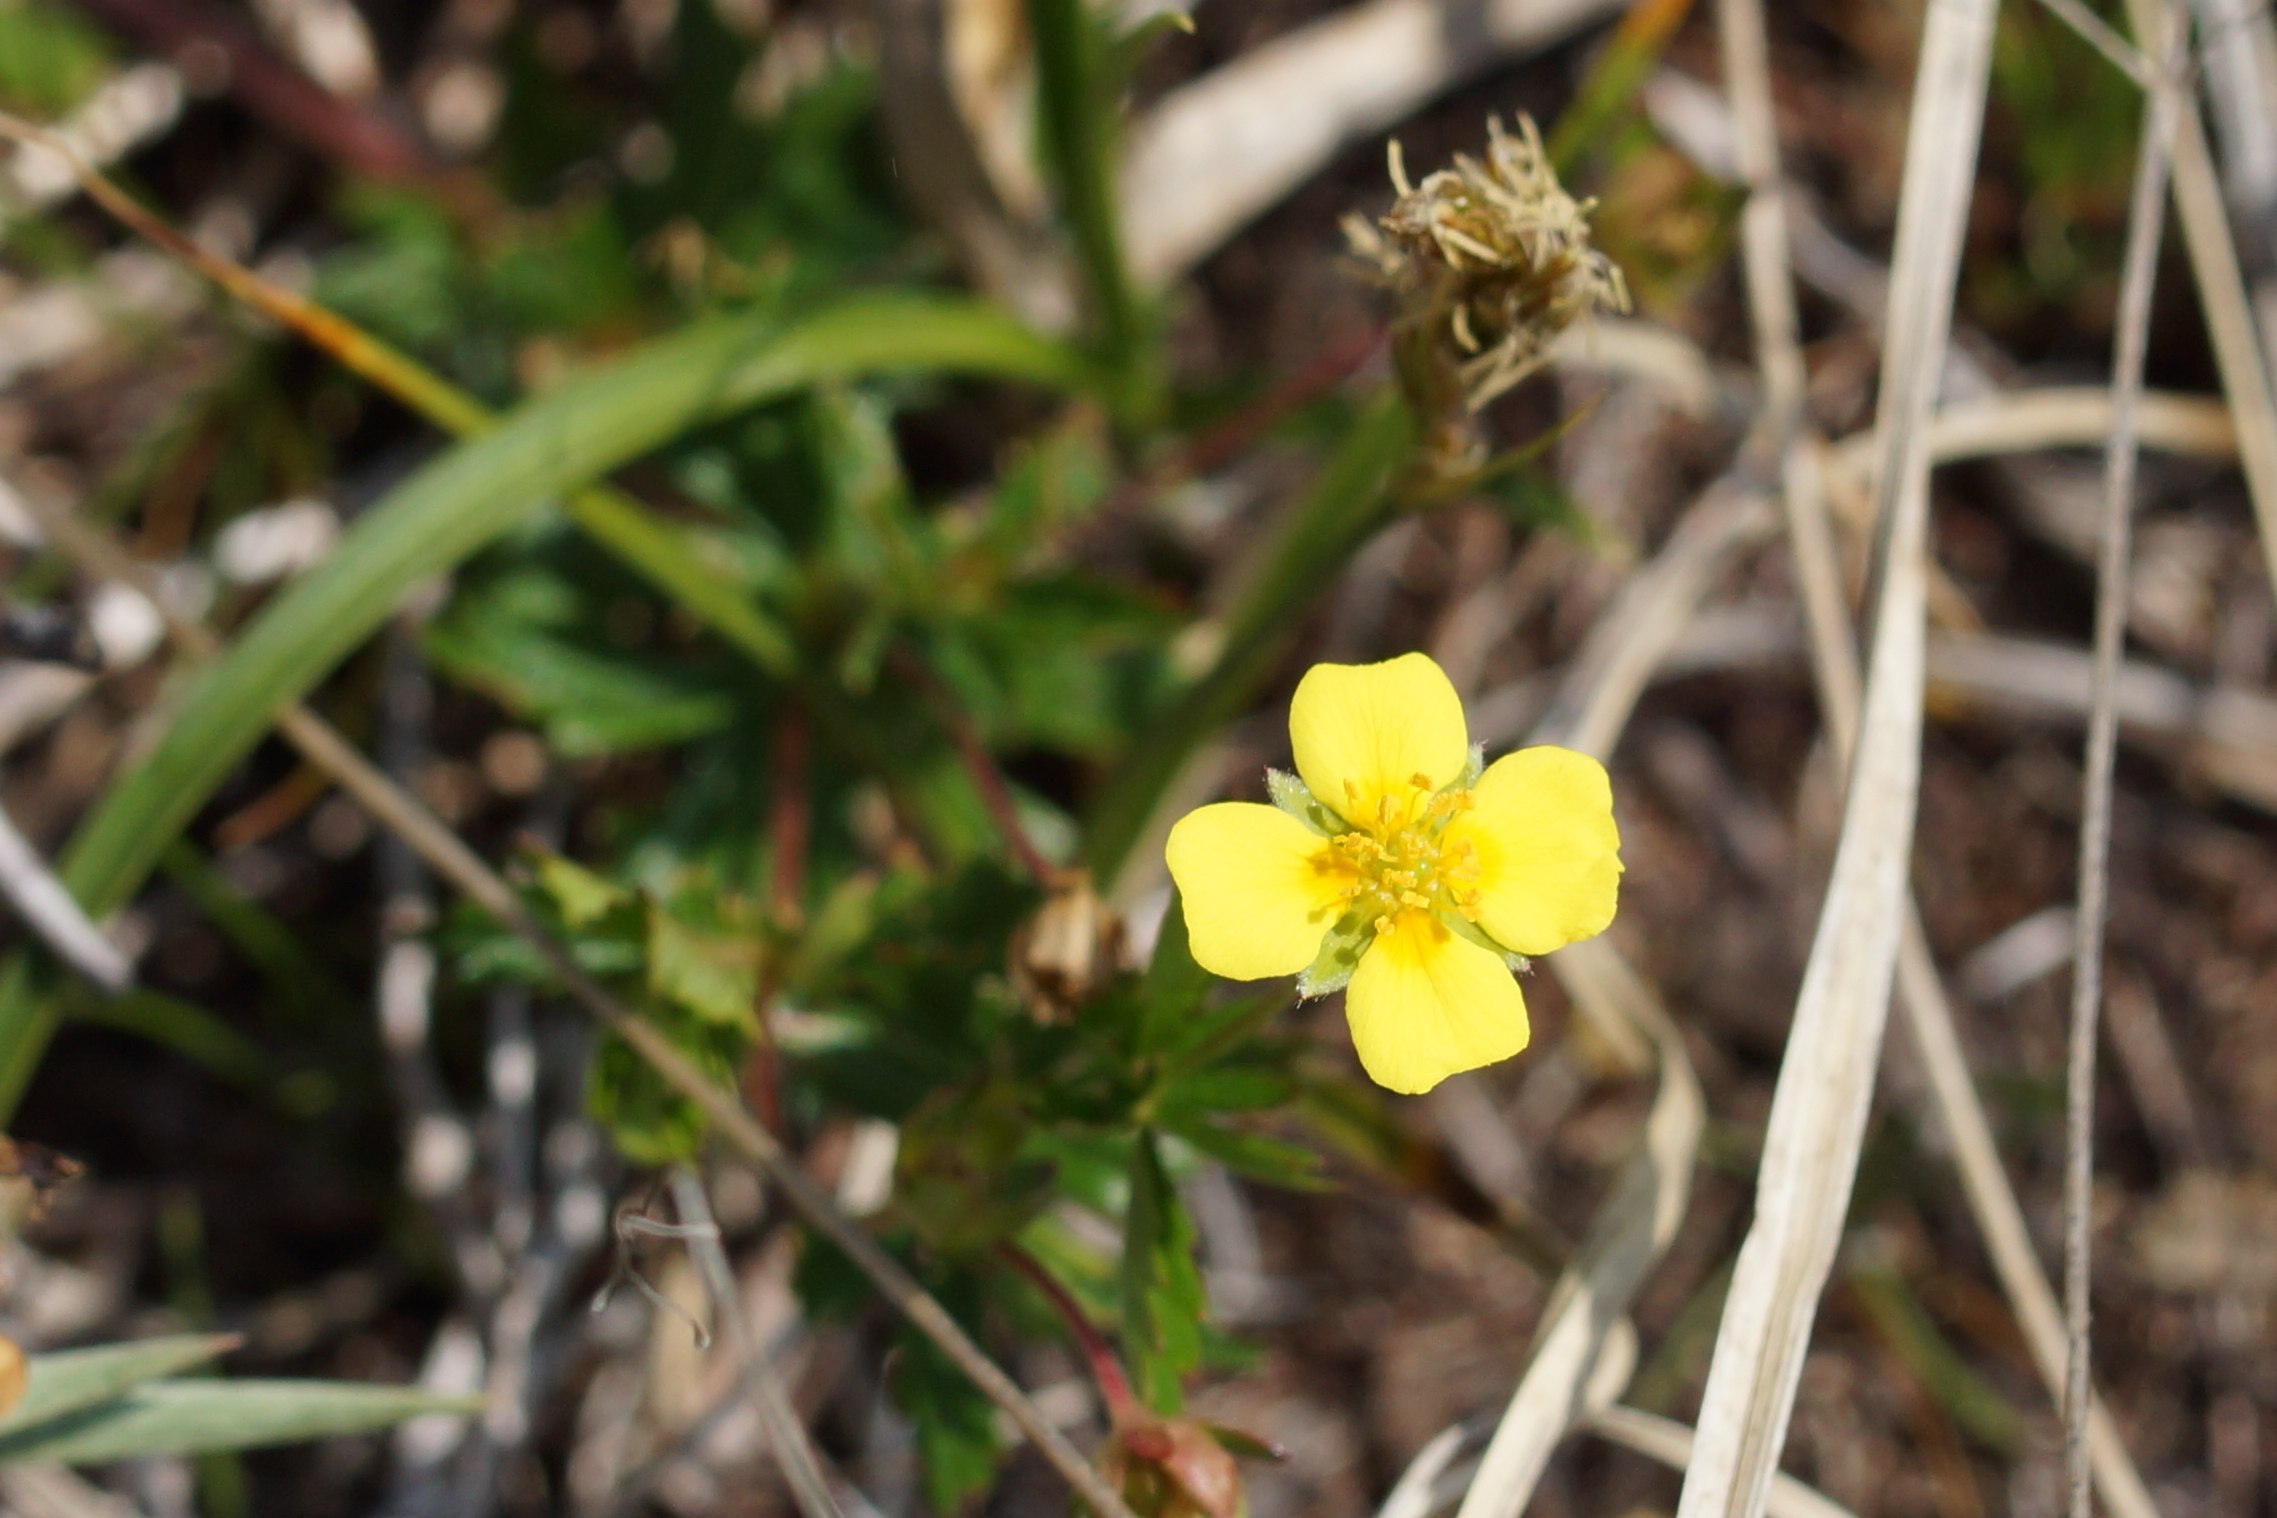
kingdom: Plantae
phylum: Tracheophyta
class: Magnoliopsida
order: Rosales
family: Rosaceae
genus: Potentilla
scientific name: Potentilla erecta
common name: Tormentil
